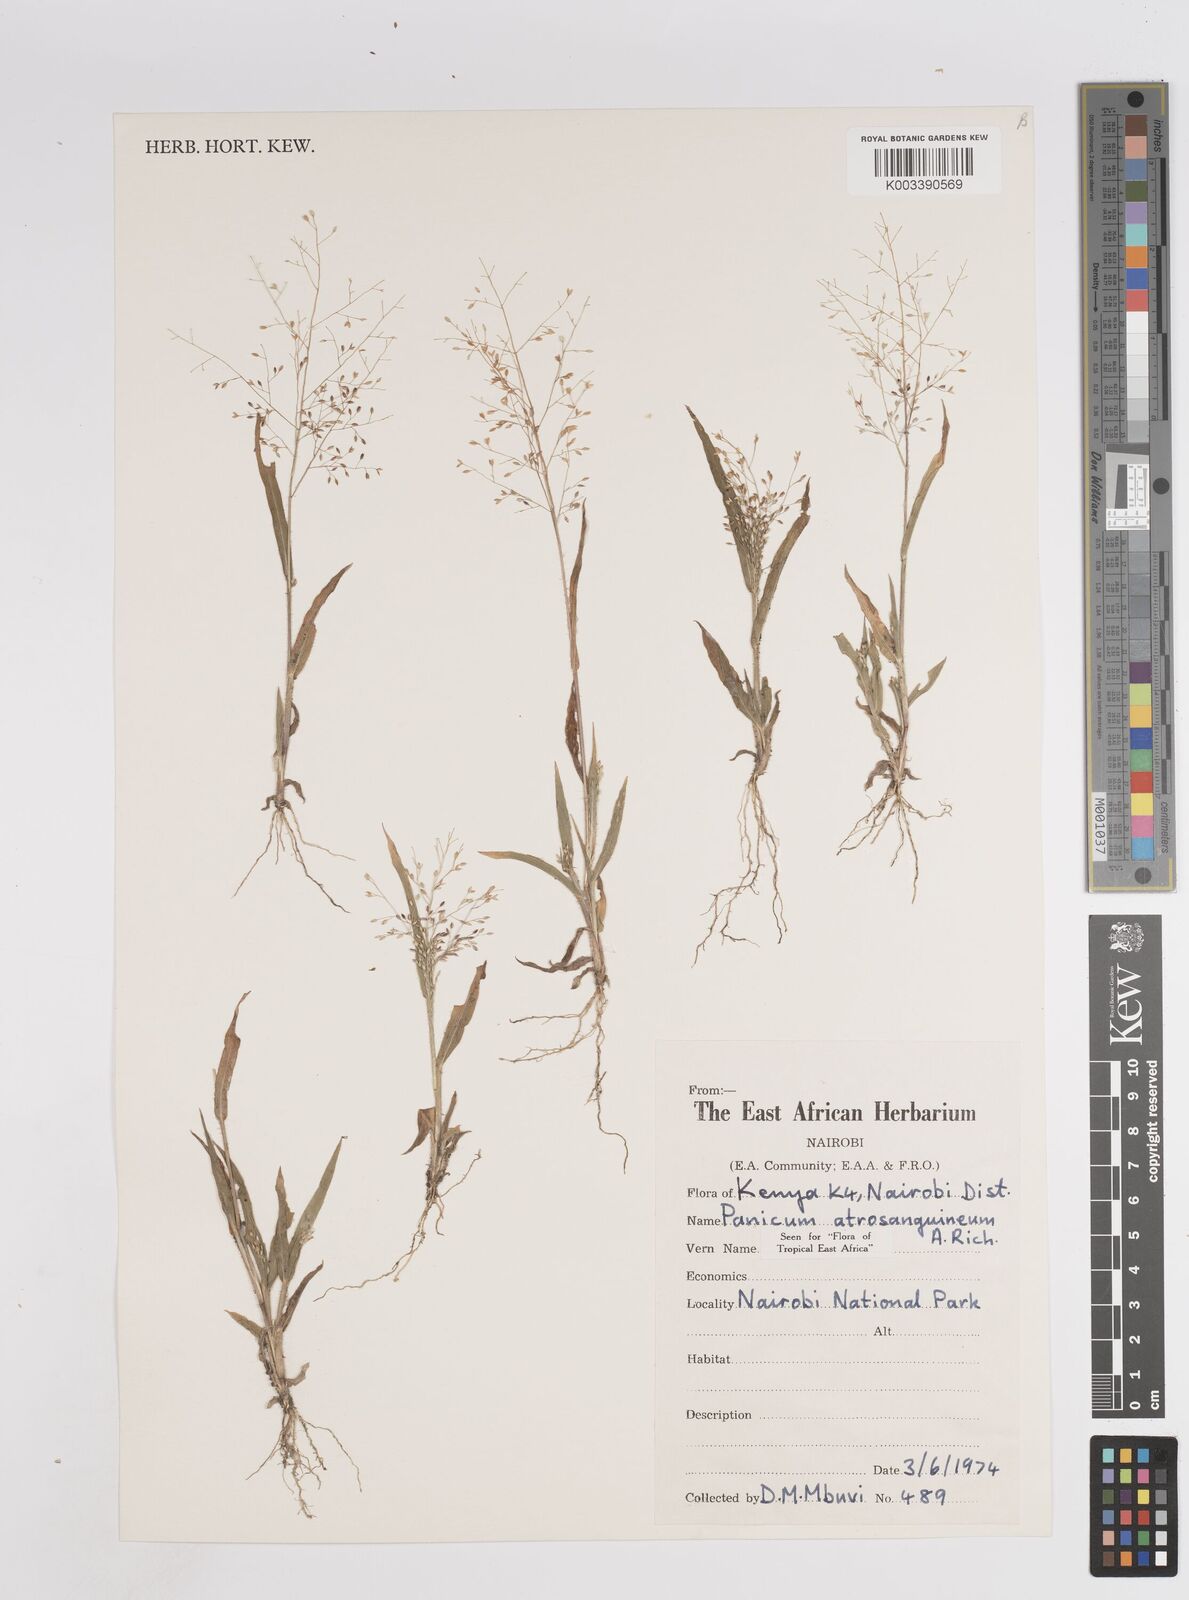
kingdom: Plantae
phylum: Tracheophyta
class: Liliopsida
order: Poales
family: Poaceae
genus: Panicum
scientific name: Panicum atrosanguineum
